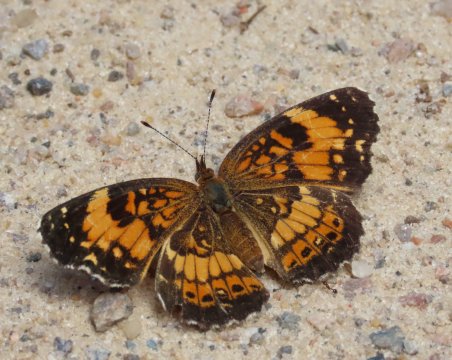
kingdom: Animalia
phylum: Arthropoda
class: Insecta
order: Lepidoptera
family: Nymphalidae
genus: Chlosyne
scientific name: Chlosyne nycteis
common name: Silvery Checkerspot
